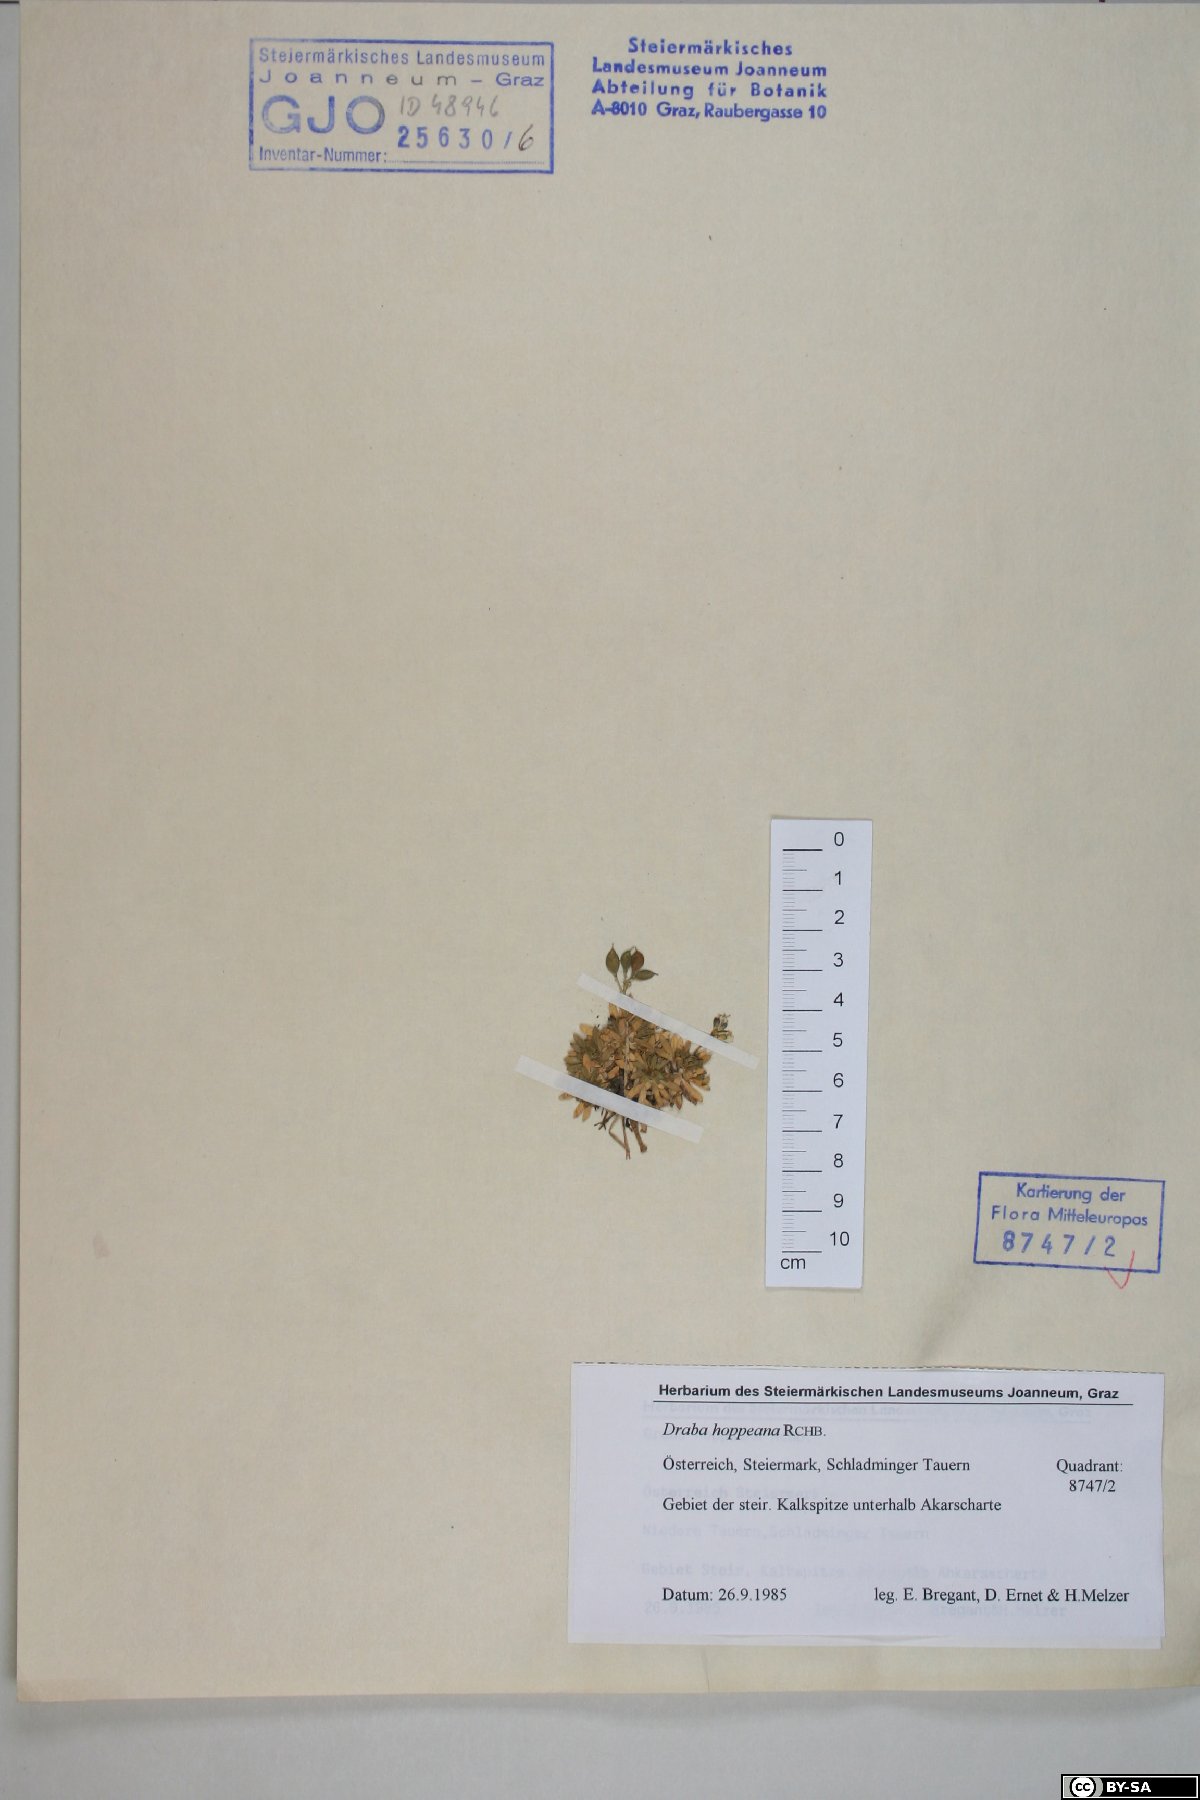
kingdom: Plantae
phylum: Tracheophyta
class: Magnoliopsida
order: Brassicales
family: Brassicaceae
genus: Draba
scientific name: Draba hoppeana
